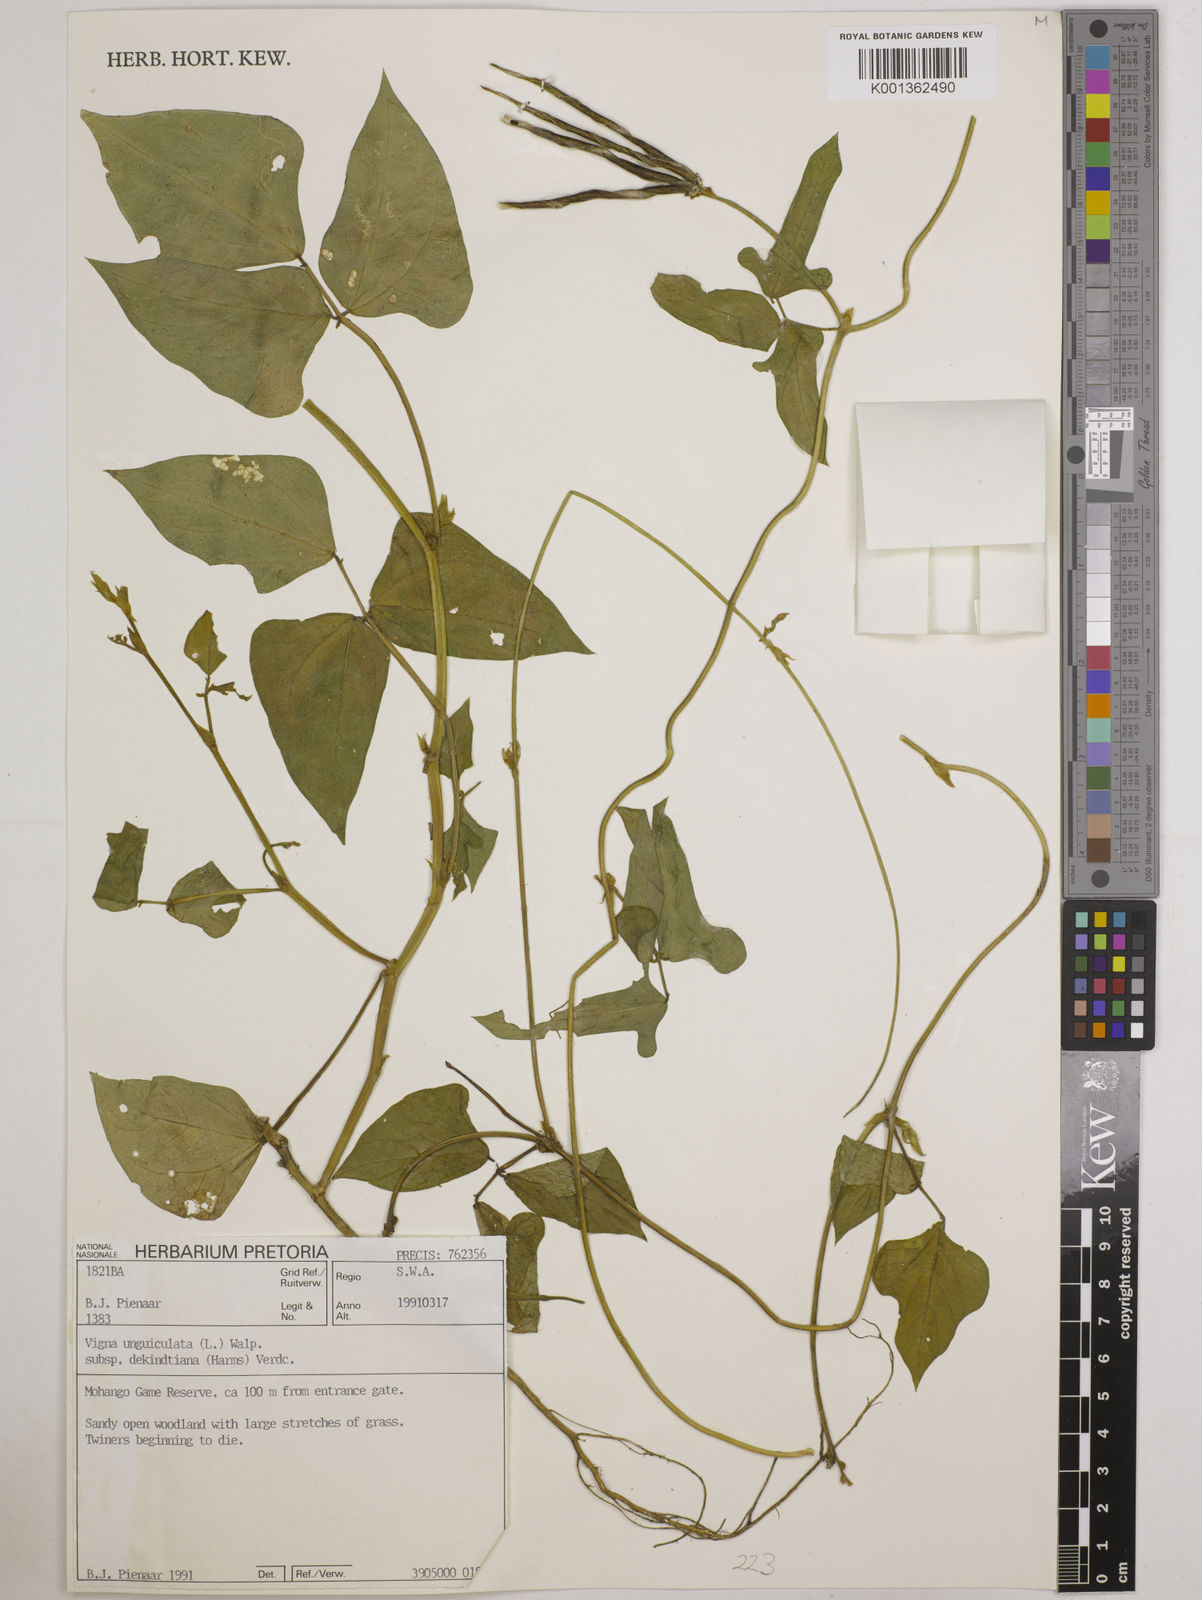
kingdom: Plantae
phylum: Tracheophyta
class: Magnoliopsida
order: Fabales
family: Fabaceae
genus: Vigna
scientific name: Vigna
